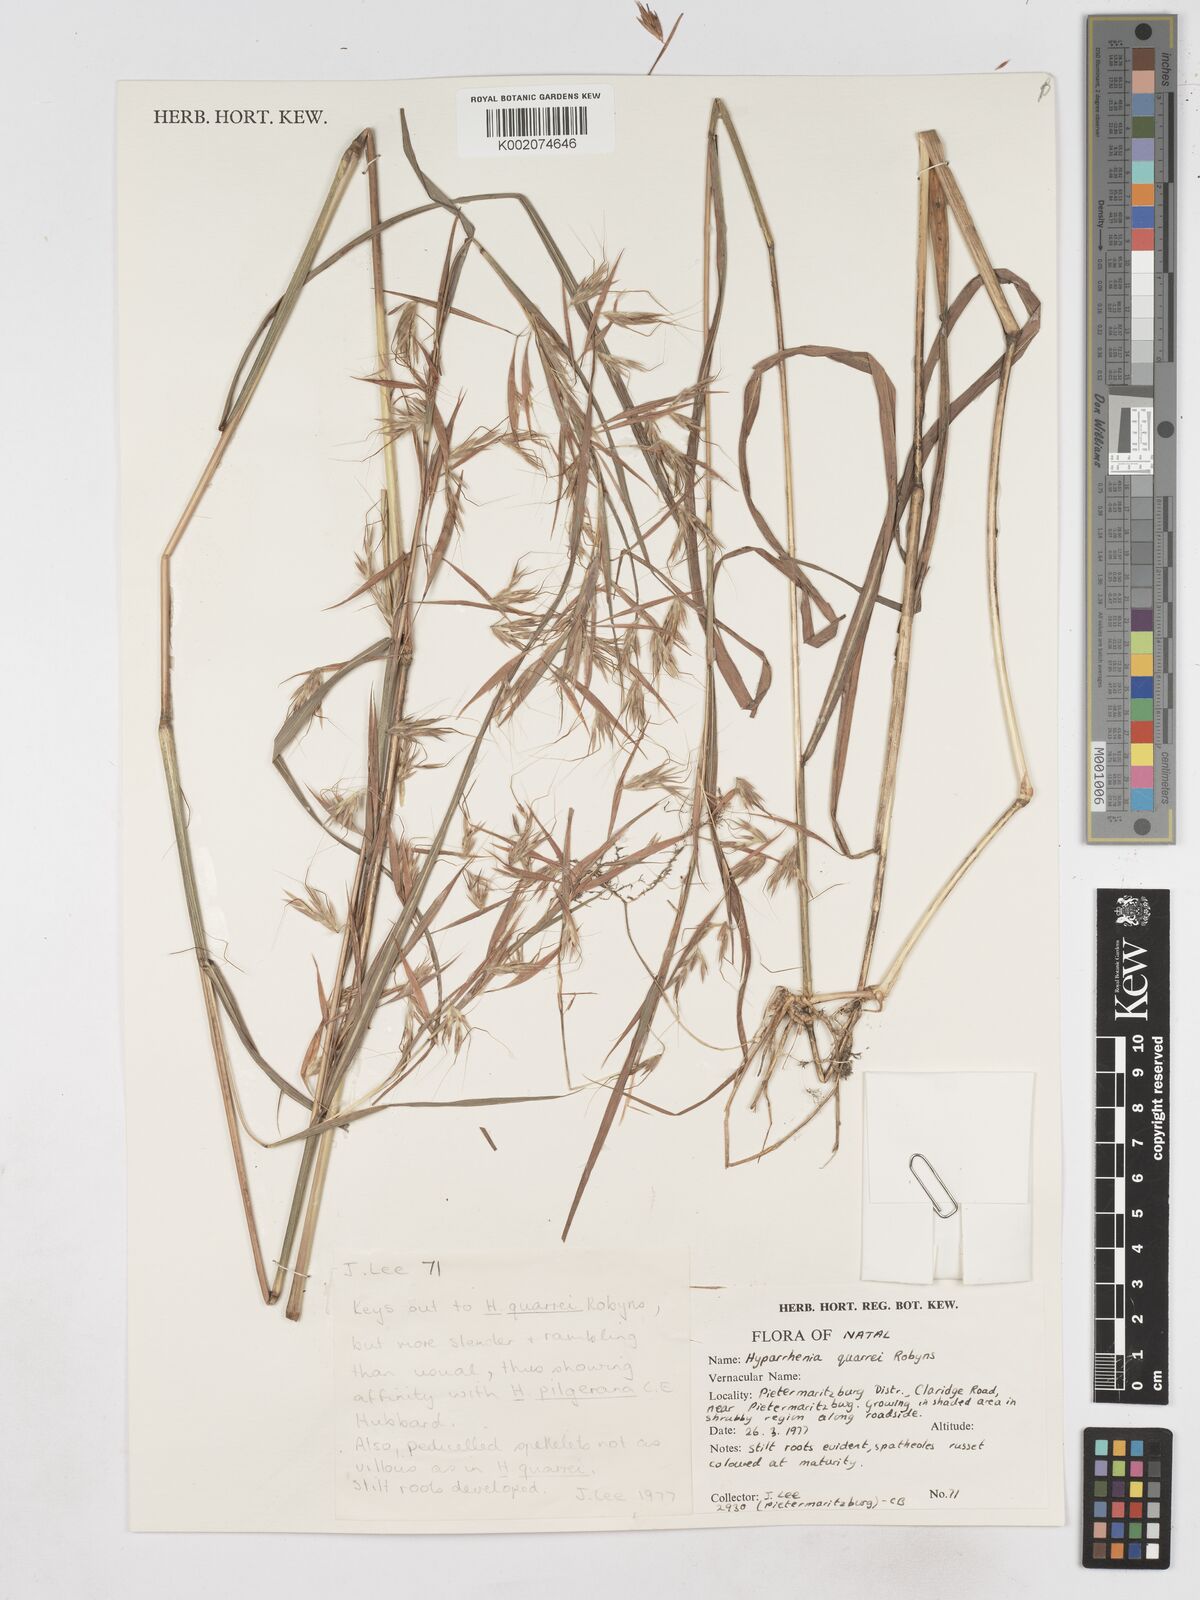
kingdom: Plantae
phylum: Tracheophyta
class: Liliopsida
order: Poales
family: Poaceae
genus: Hyparrhenia
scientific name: Hyparrhenia quarrei
